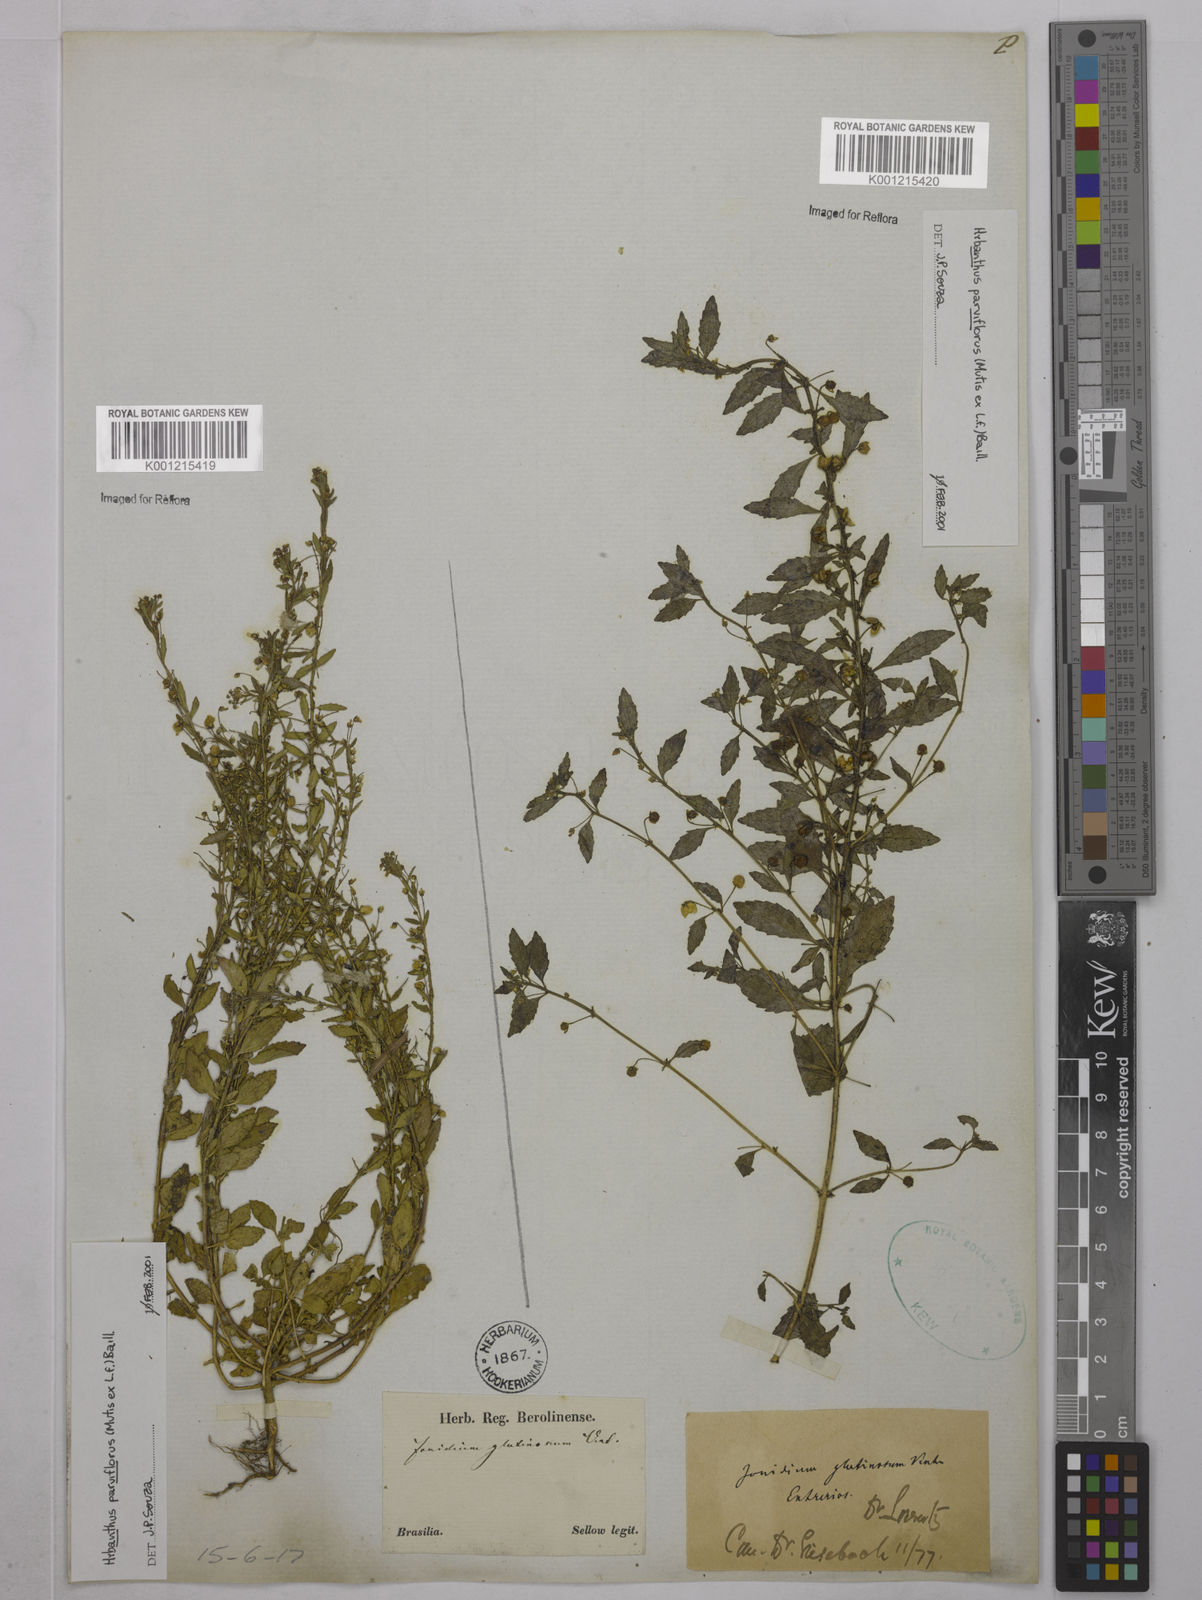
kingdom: Plantae
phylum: Tracheophyta
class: Magnoliopsida
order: Malpighiales
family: Violaceae
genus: Pombalia
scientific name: Pombalia parviflora
